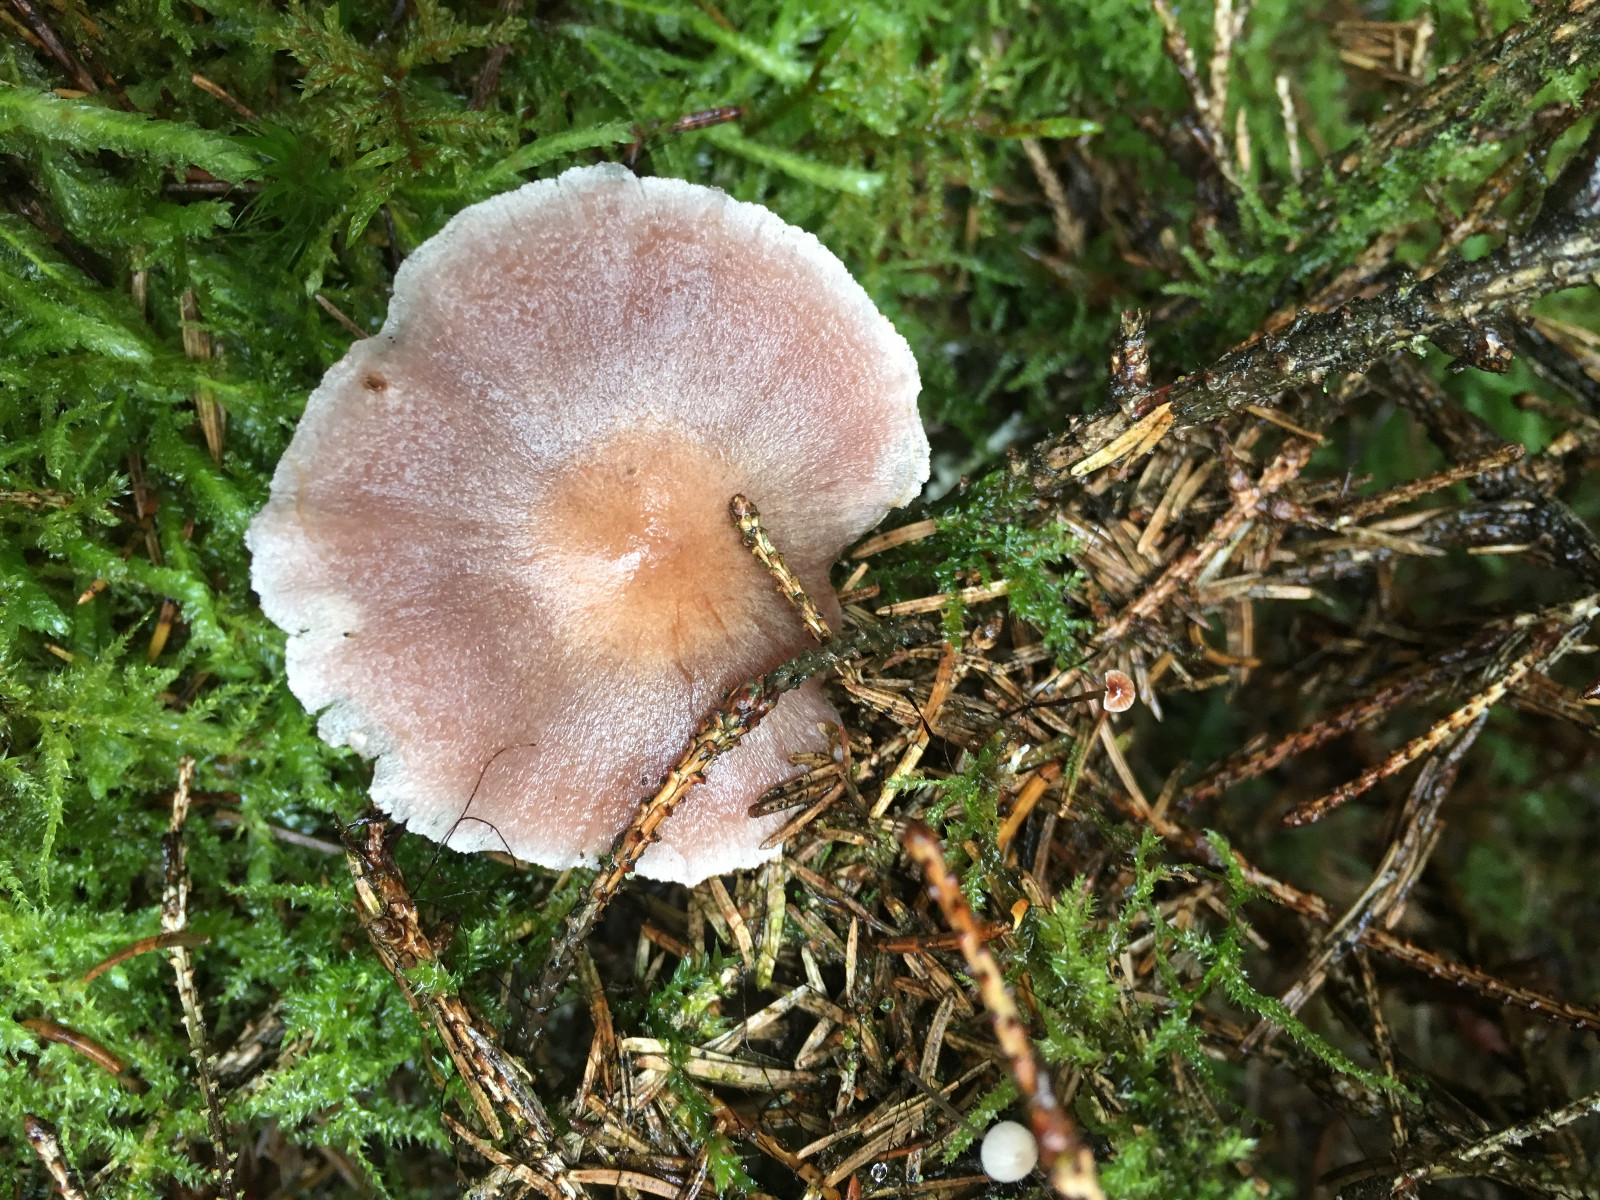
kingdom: Fungi
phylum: Basidiomycota
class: Agaricomycetes
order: Agaricales
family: Cortinariaceae
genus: Cortinarius
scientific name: Cortinarius
